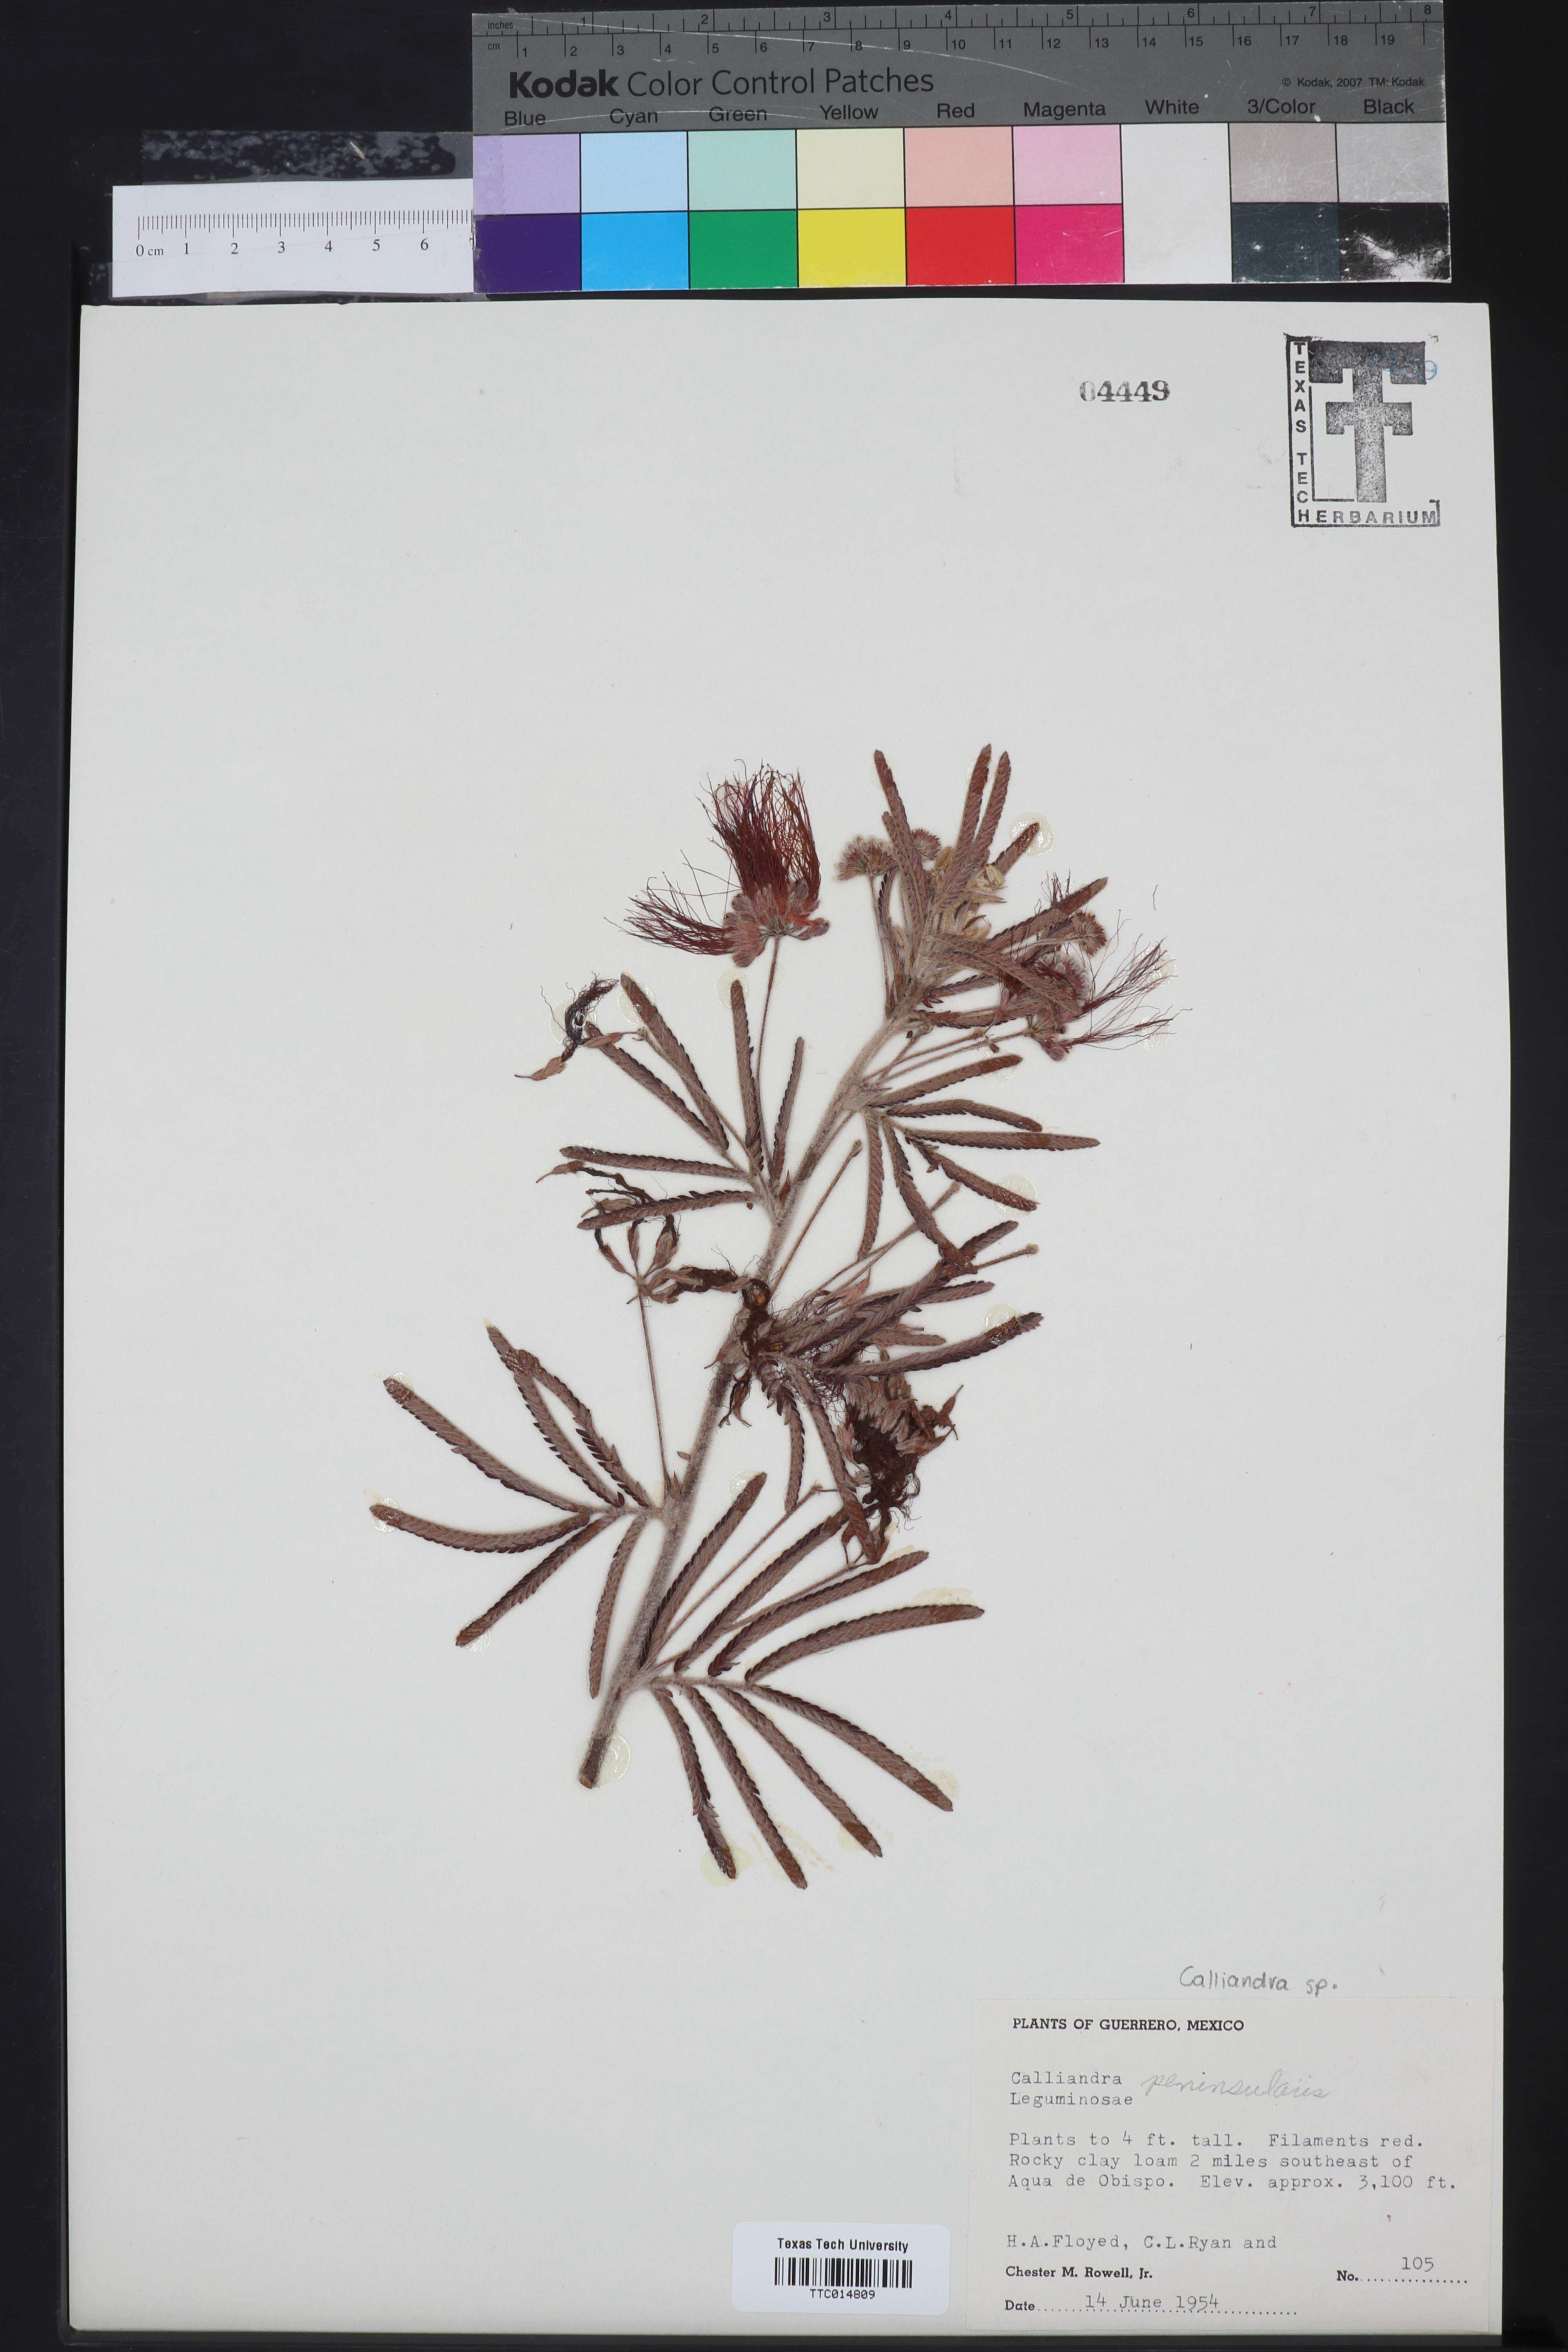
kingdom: Plantae
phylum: Tracheophyta
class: Magnoliopsida
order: Fabales
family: Fabaceae
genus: Calliandra
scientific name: Calliandra peninsularis
